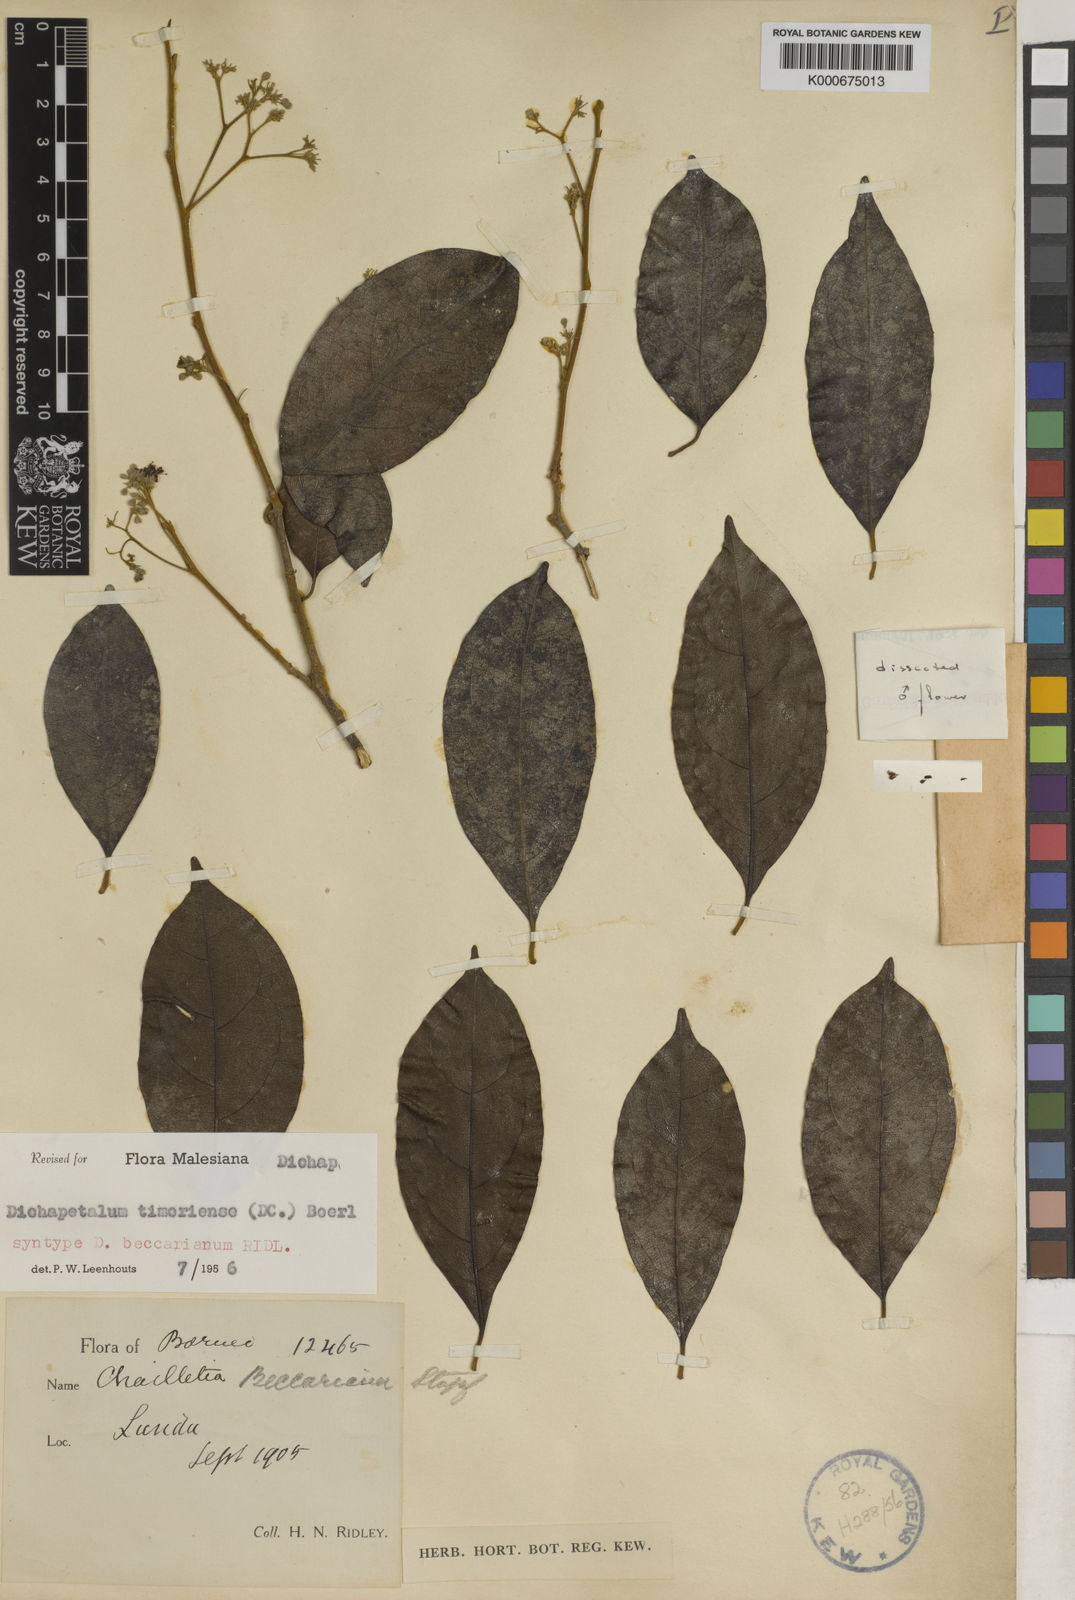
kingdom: Plantae
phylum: Tracheophyta
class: Magnoliopsida
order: Malpighiales
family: Dichapetalaceae
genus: Dichapetalum
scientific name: Dichapetalum timoriense
